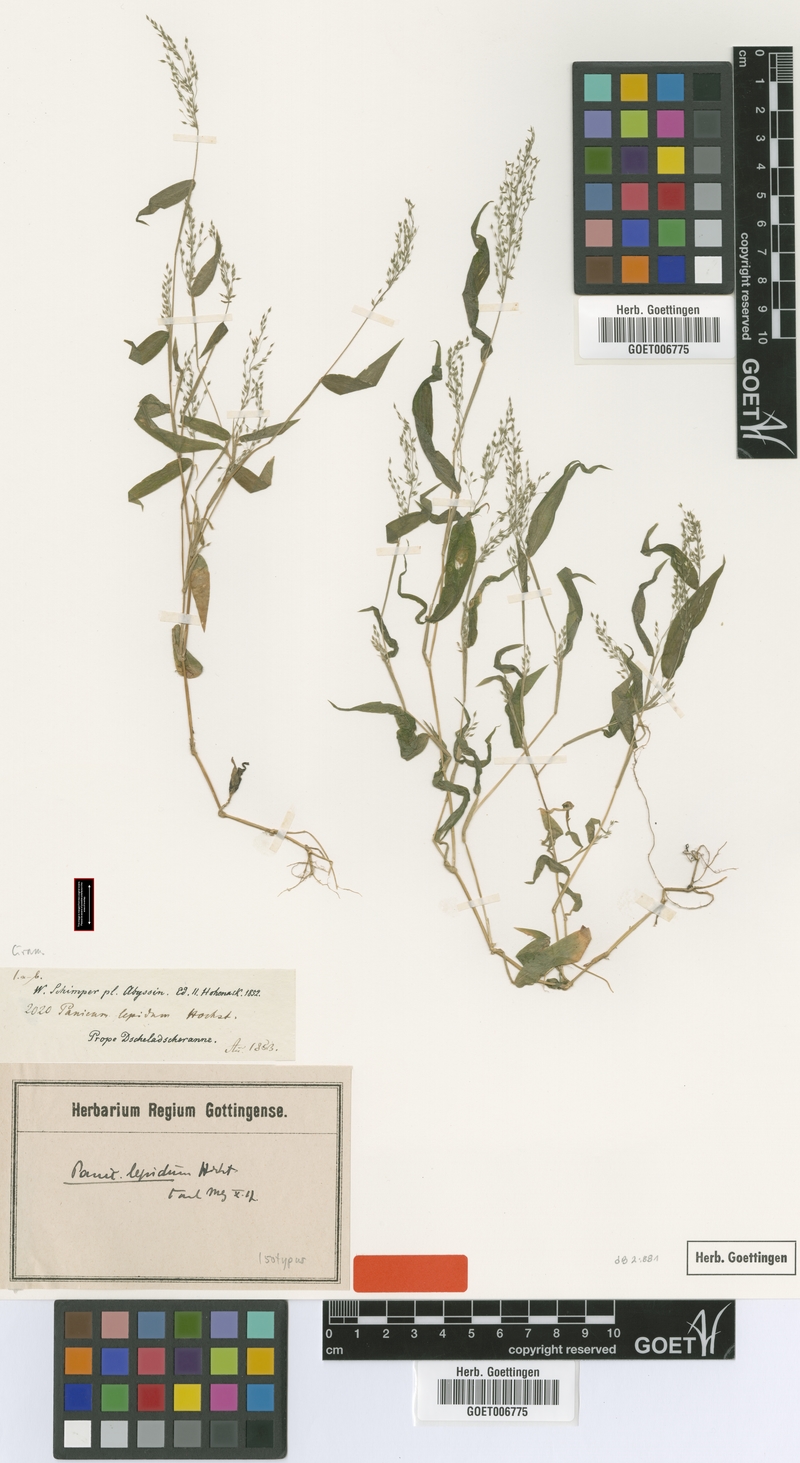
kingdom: Plantae
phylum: Tracheophyta
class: Liliopsida
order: Poales
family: Poaceae
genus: Panicum
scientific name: Panicum delicatulum
